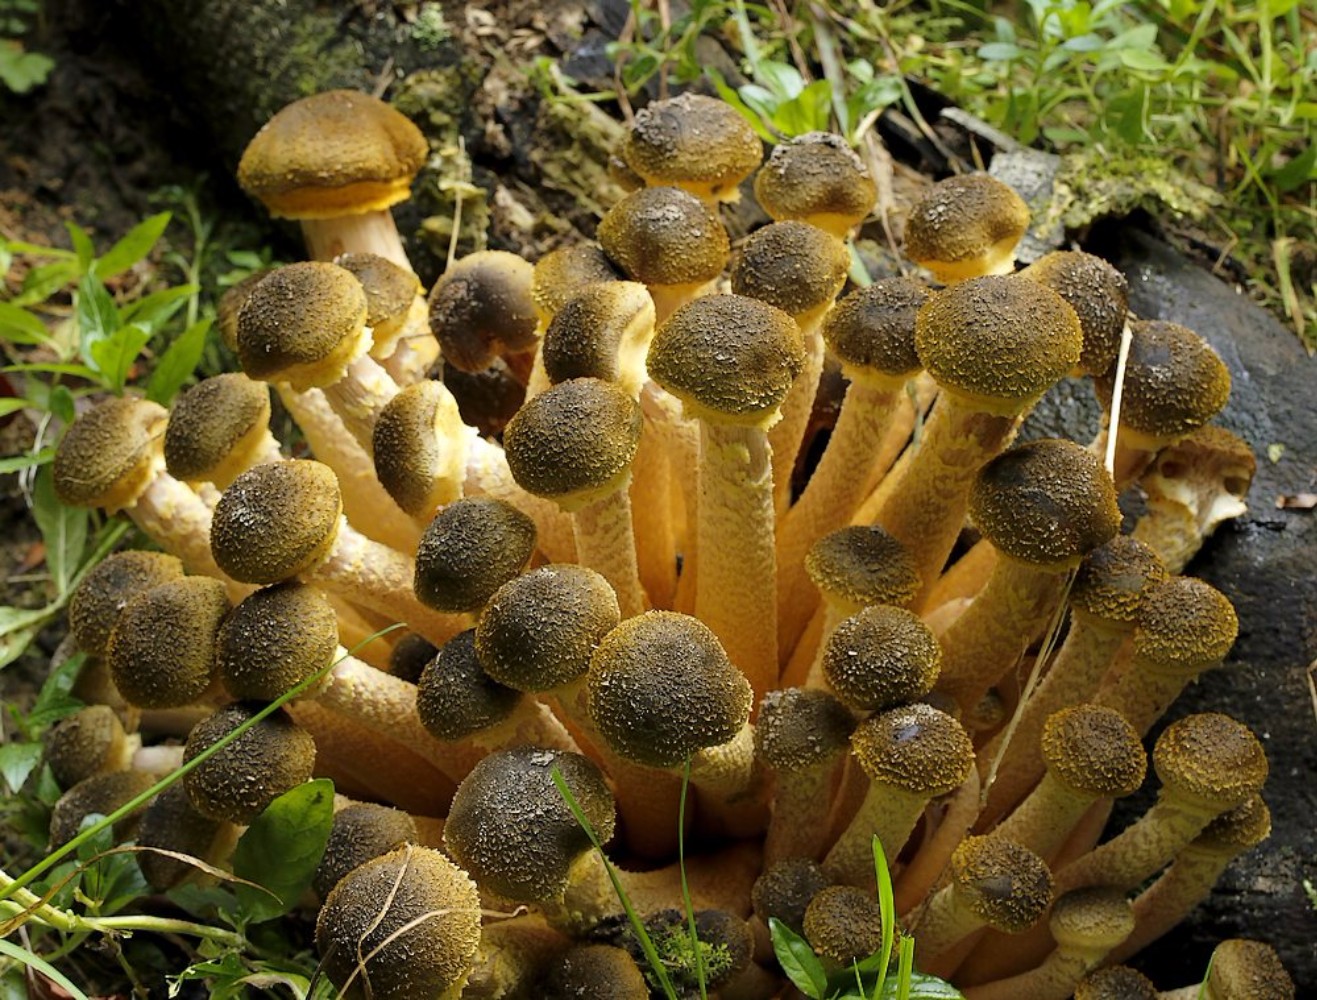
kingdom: Fungi
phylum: Basidiomycota
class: Agaricomycetes
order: Agaricales
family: Physalacriaceae
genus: Armillaria
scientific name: Armillaria mellea
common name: ægte honningsvamp
